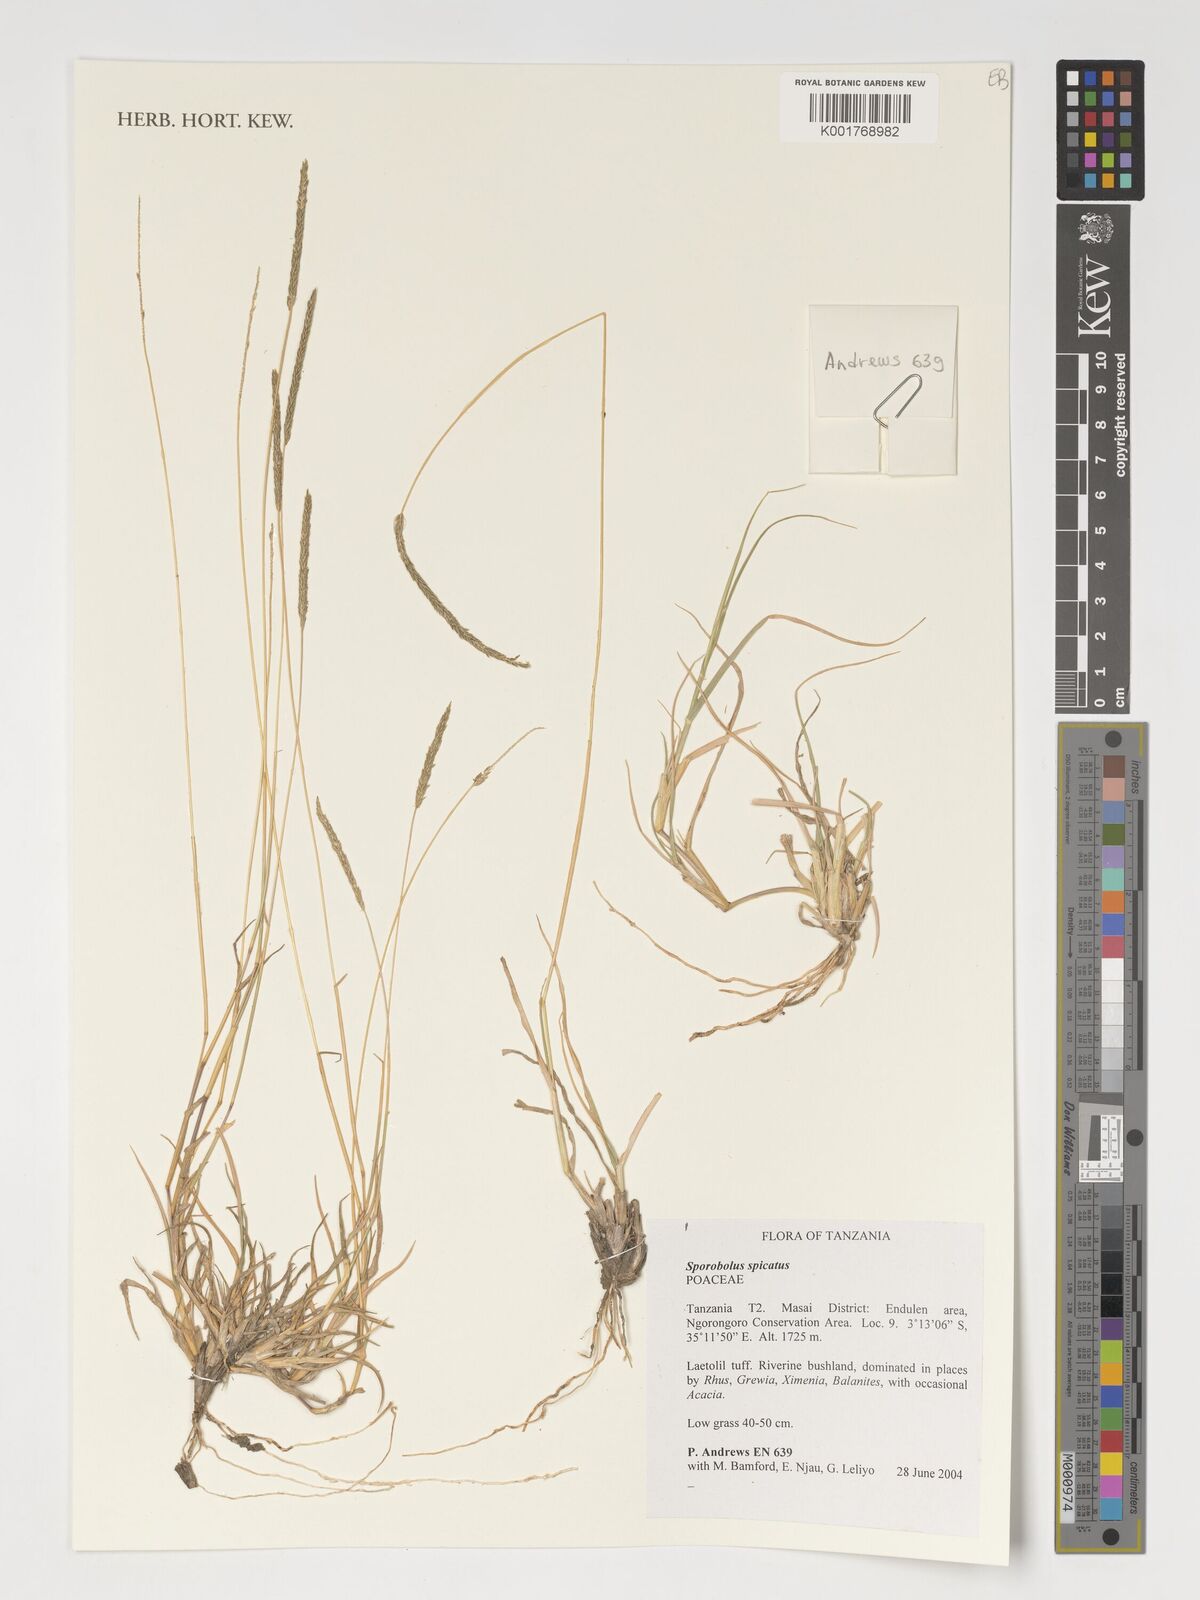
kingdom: Plantae
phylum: Tracheophyta
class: Liliopsida
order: Poales
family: Poaceae
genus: Sporobolus
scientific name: Sporobolus spicatus
